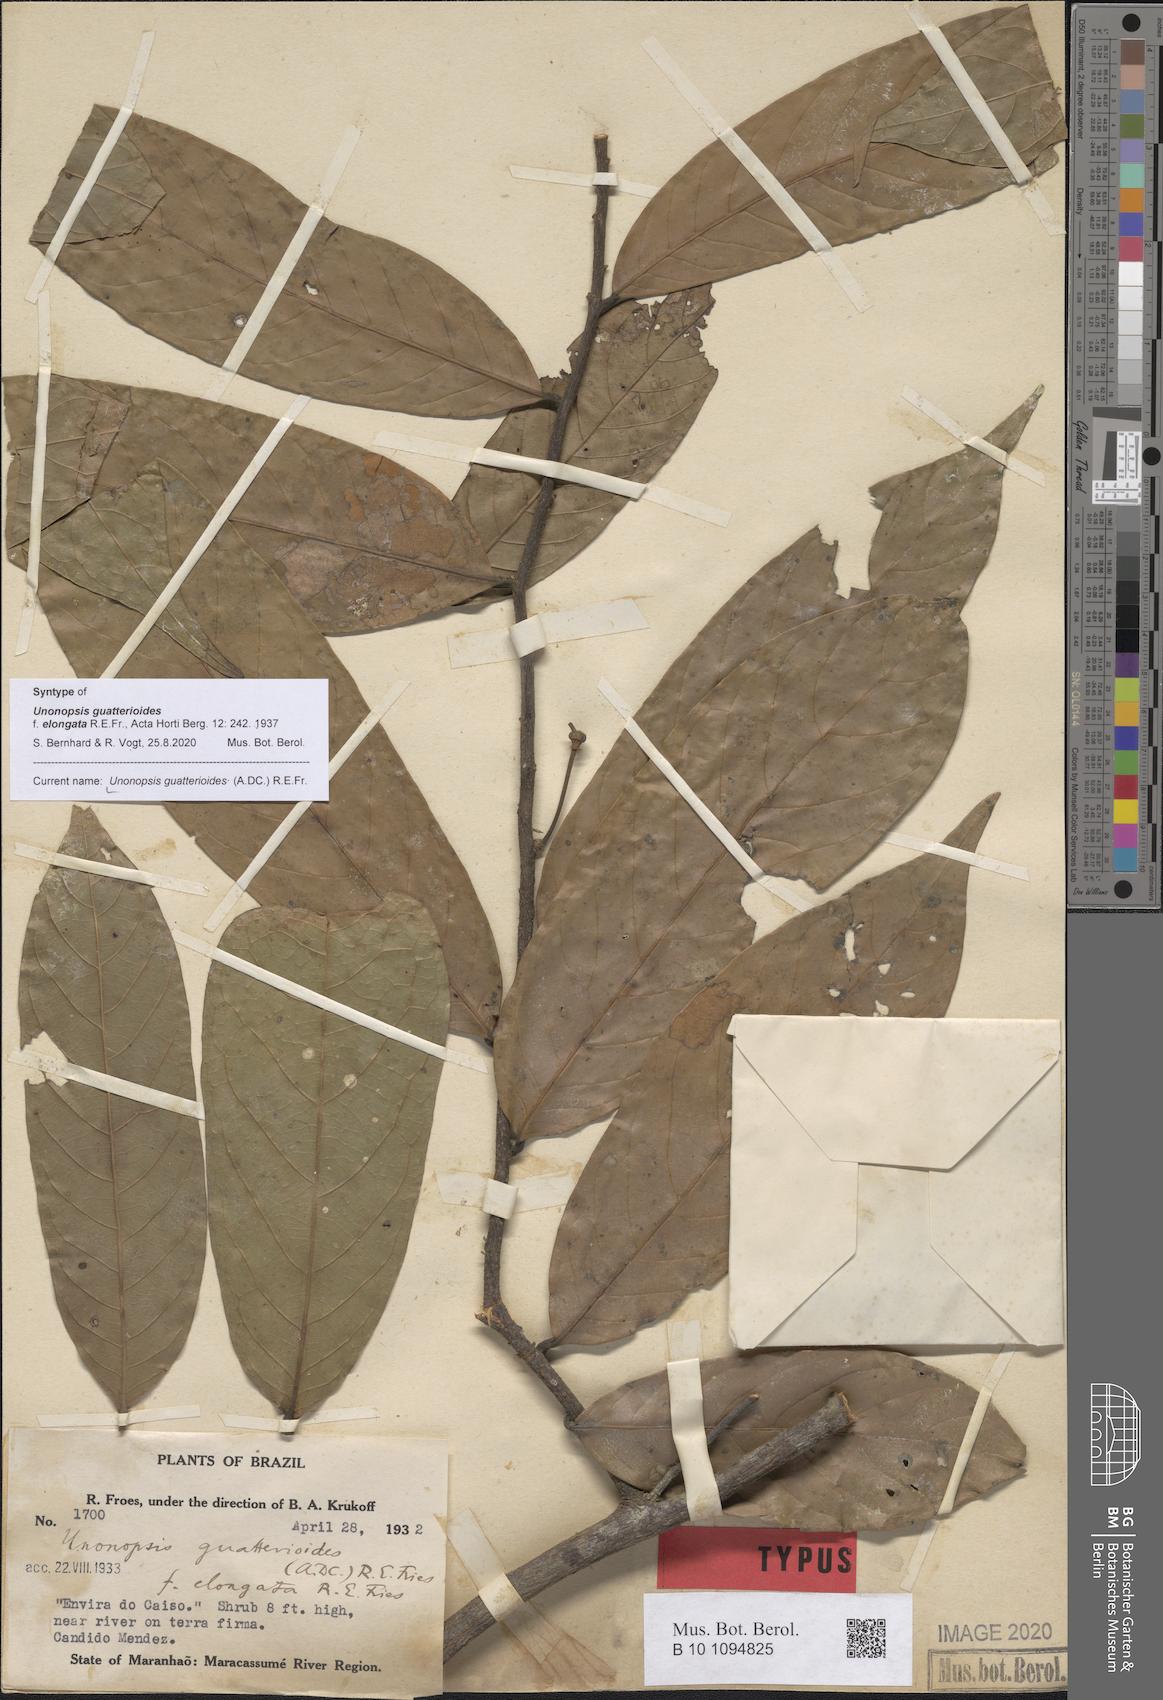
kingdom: Plantae
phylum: Tracheophyta
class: Magnoliopsida
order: Magnoliales
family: Annonaceae
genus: Unonopsis
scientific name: Unonopsis guatterioides
